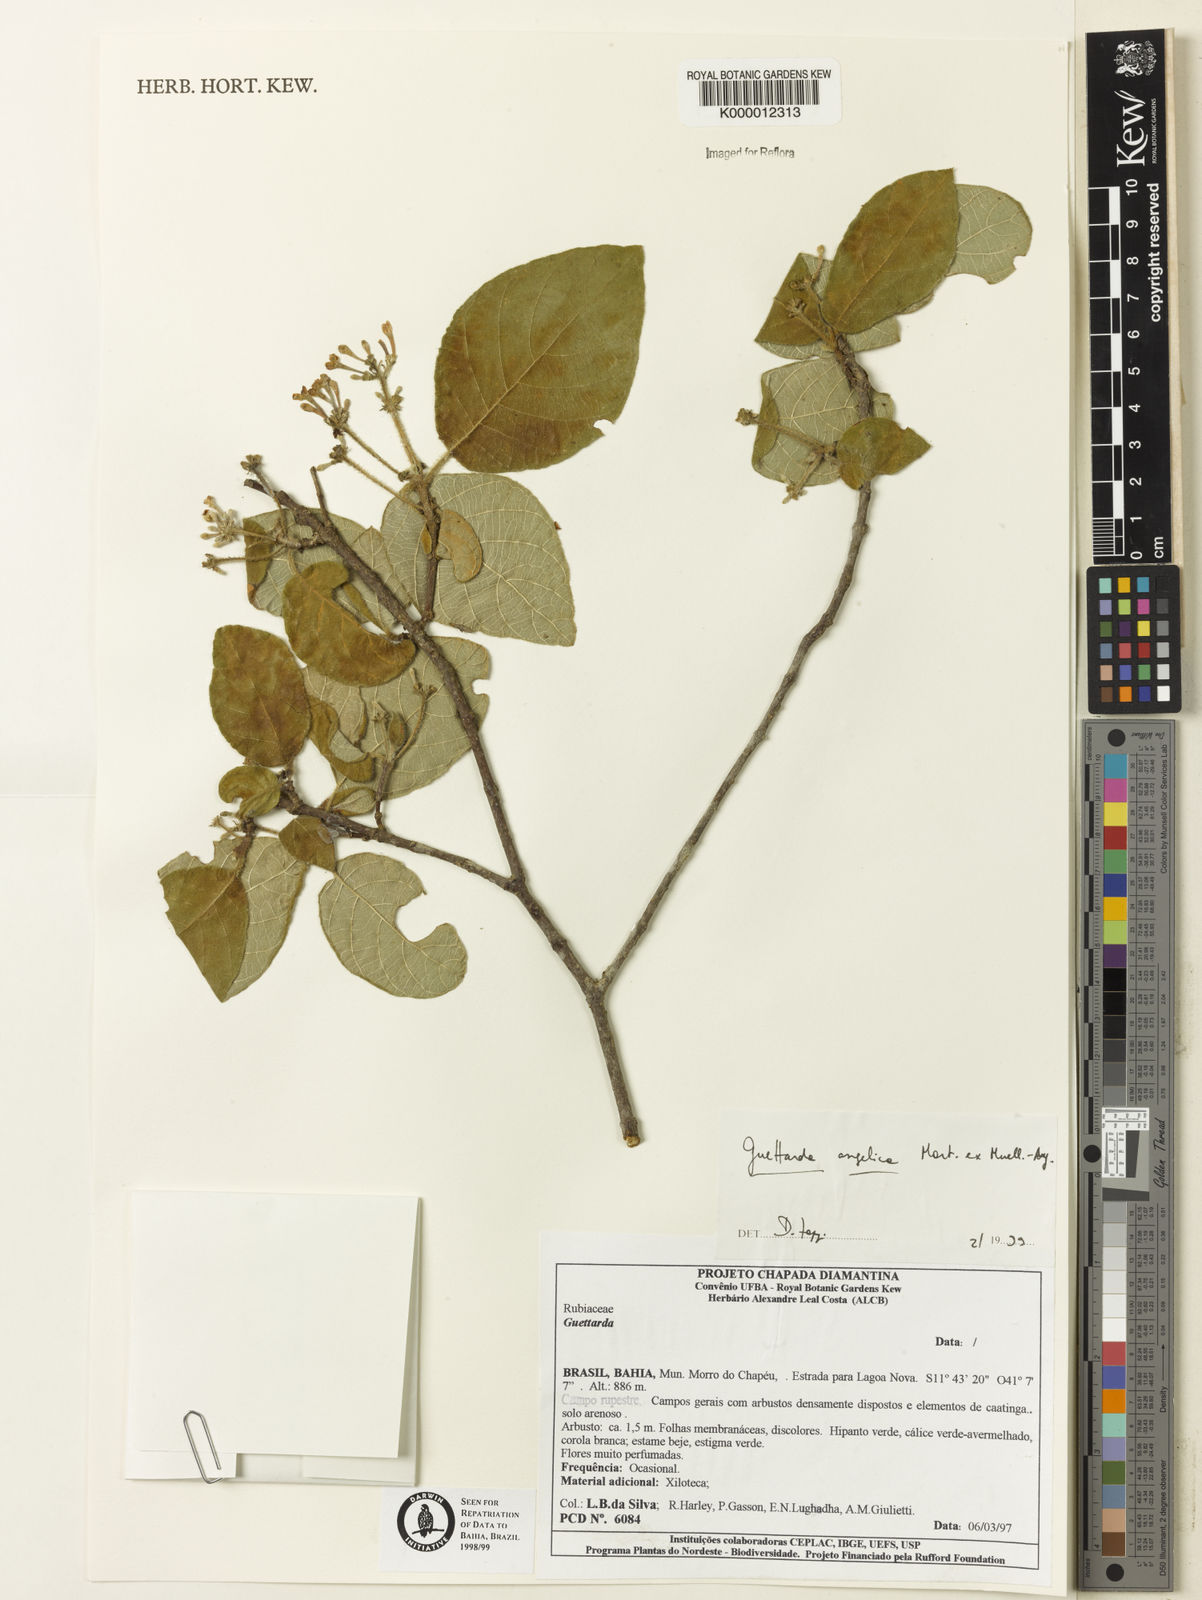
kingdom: Plantae
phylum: Tracheophyta
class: Magnoliopsida
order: Caryophyllales
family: Cactaceae
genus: Melocactus
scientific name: Melocactus violaceus
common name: Turk's-cap cactus
